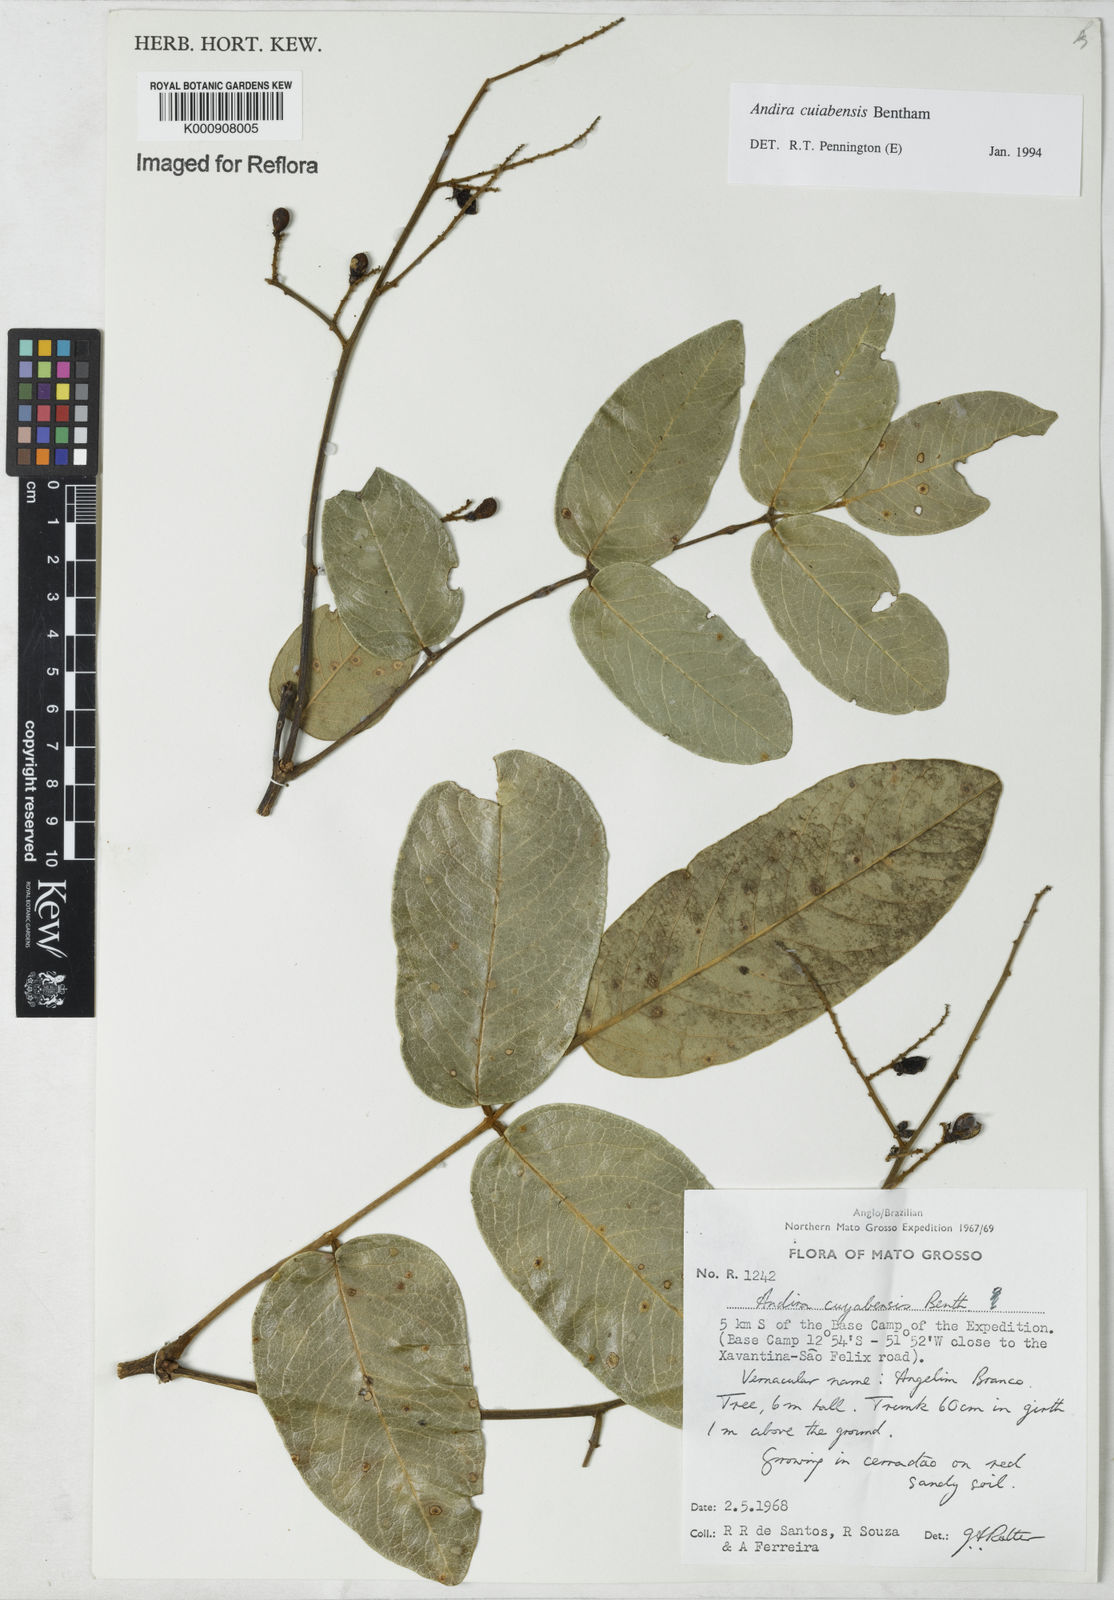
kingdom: Plantae
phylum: Tracheophyta
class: Magnoliopsida
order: Fabales
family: Fabaceae
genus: Andira
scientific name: Andira cujabensis
